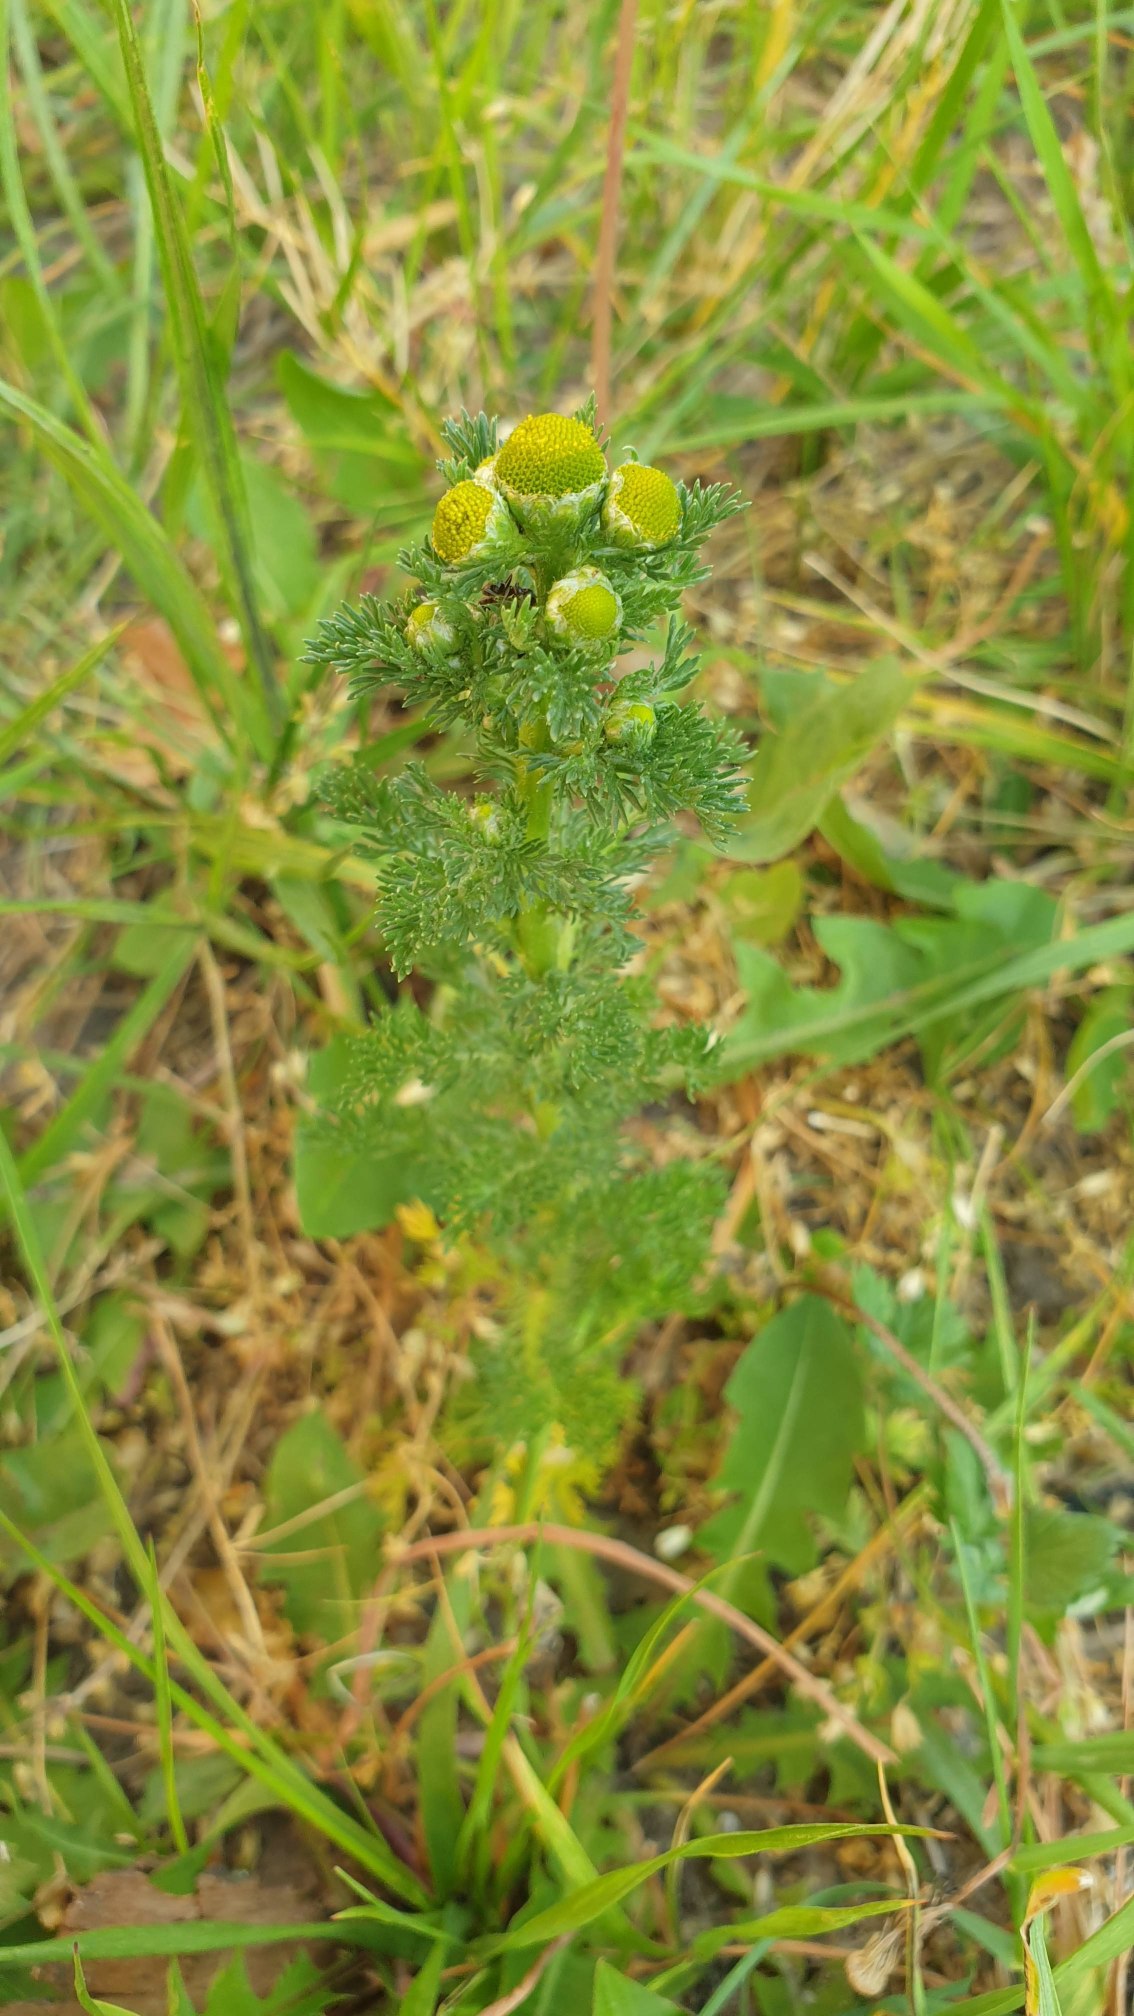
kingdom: Plantae
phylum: Tracheophyta
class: Magnoliopsida
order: Asterales
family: Asteraceae
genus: Matricaria
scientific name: Matricaria discoidea
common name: Skive-kamille
